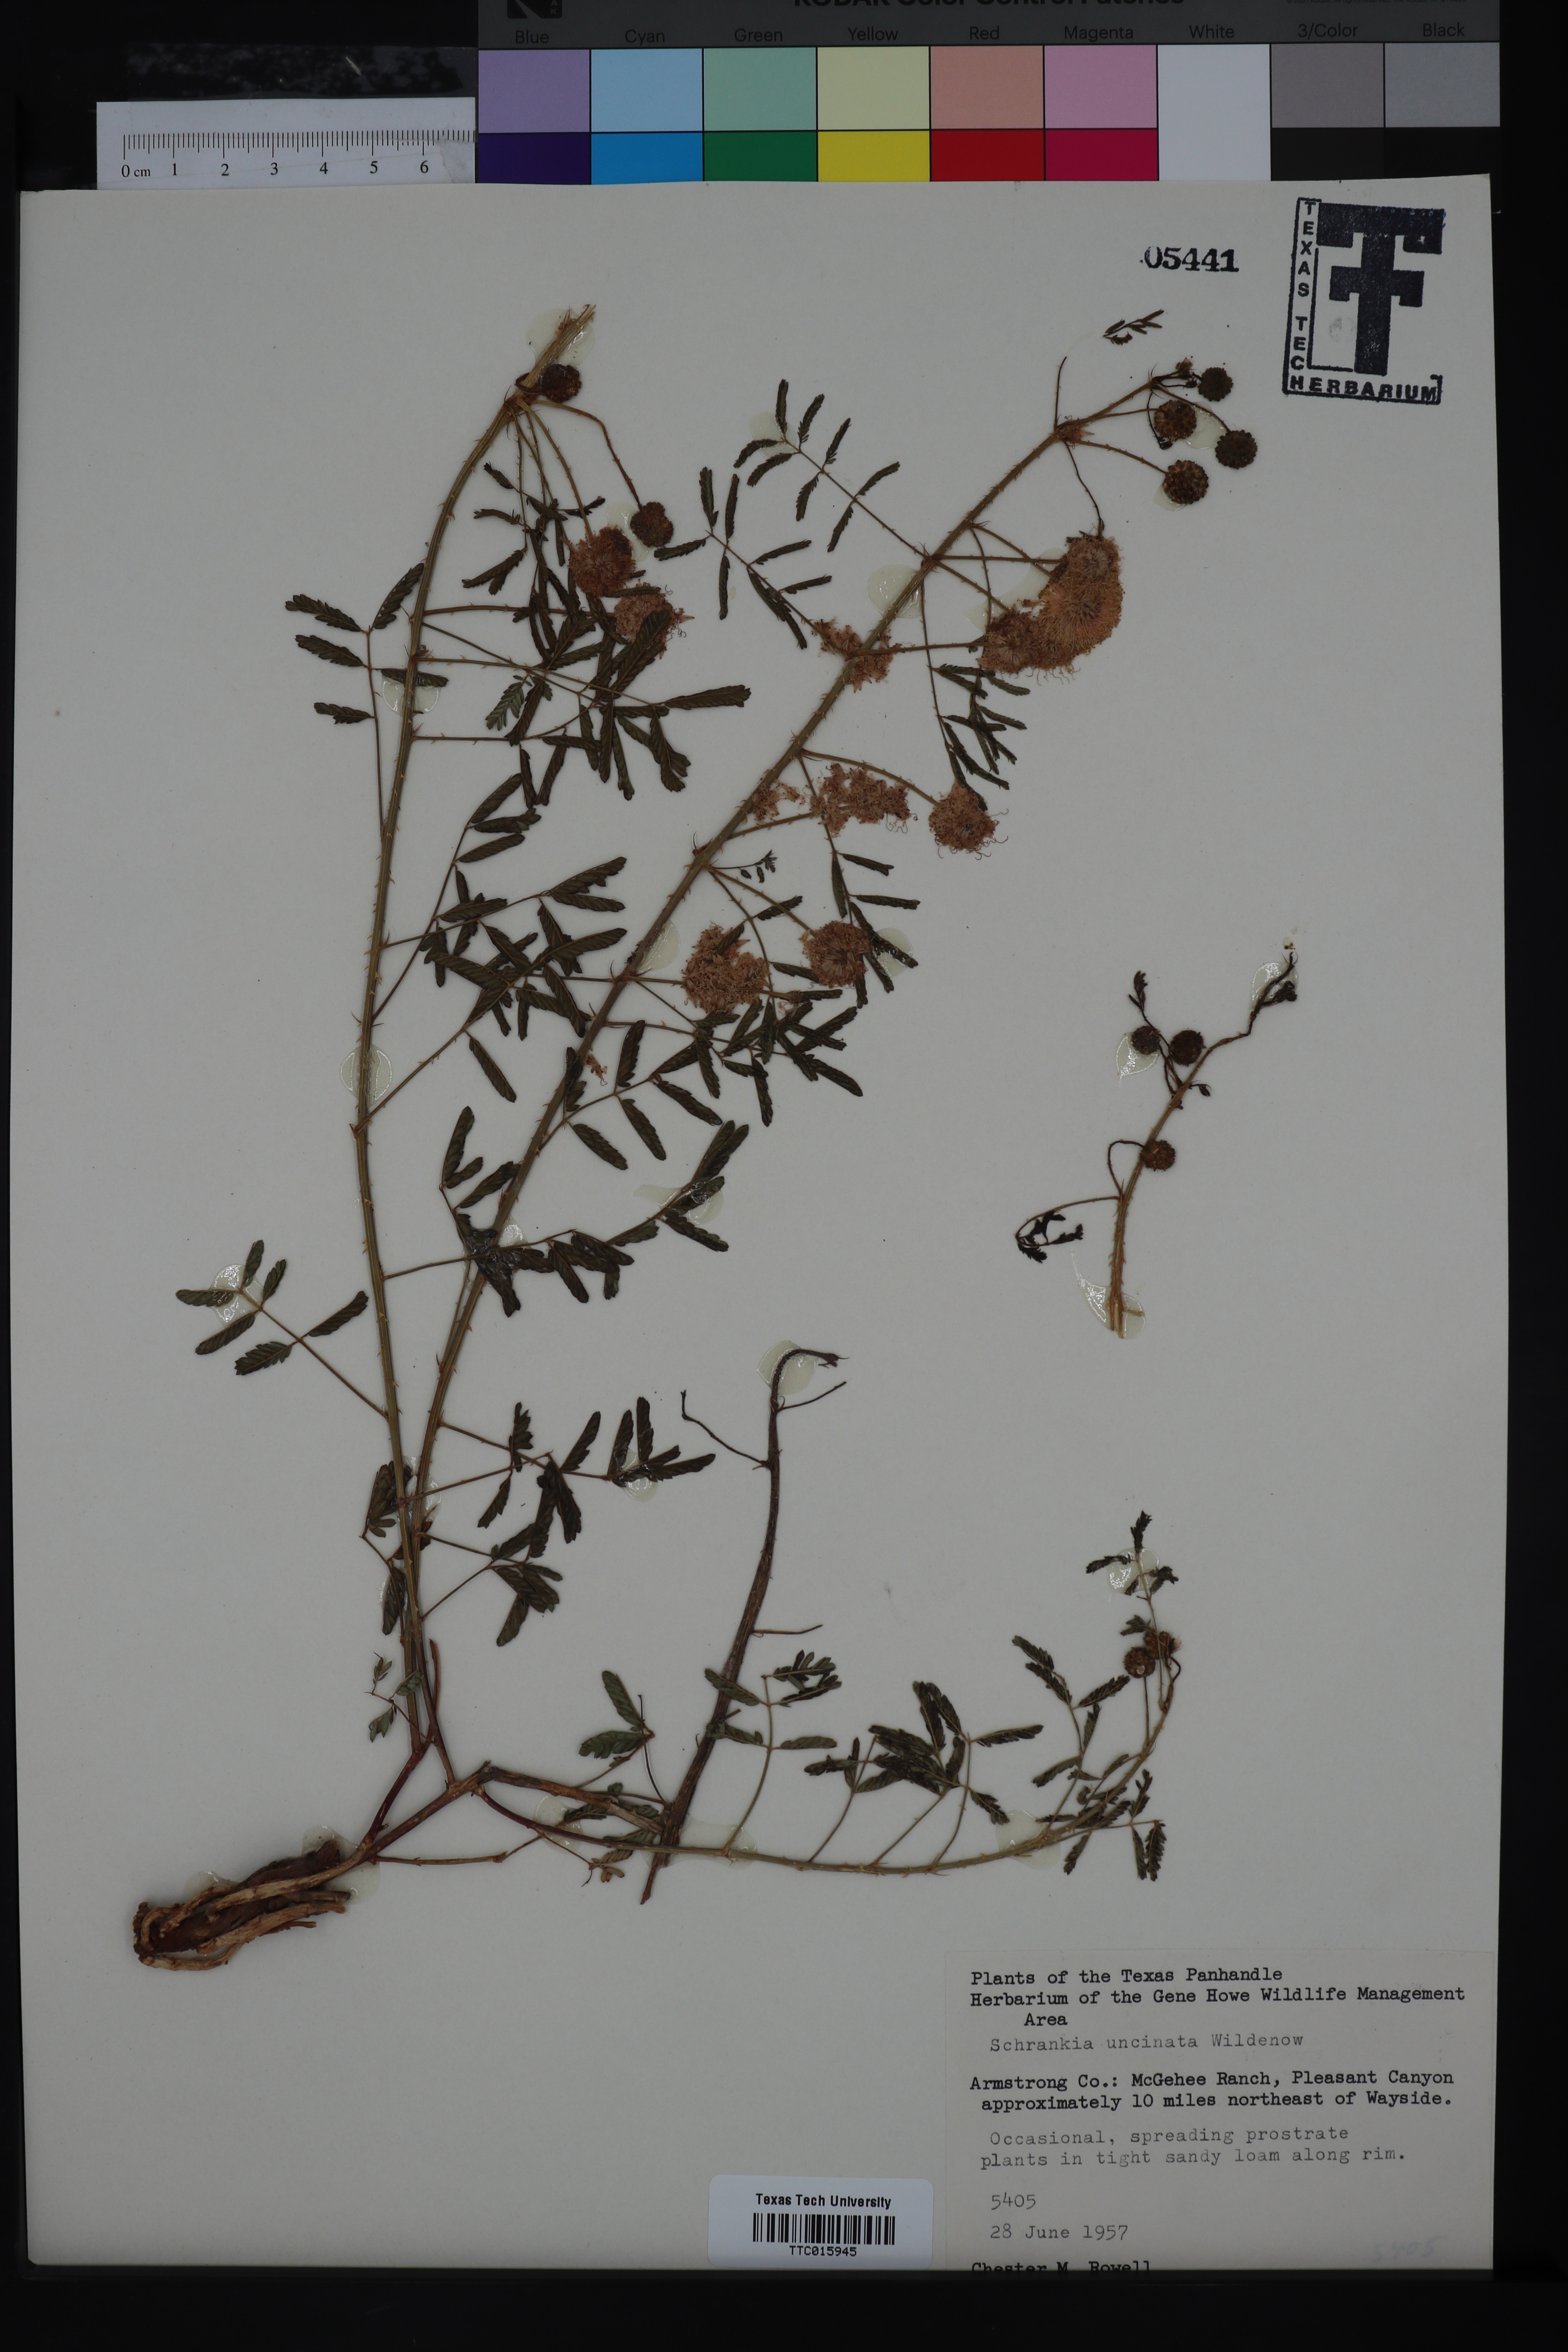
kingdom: Plantae
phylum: Tracheophyta
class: Magnoliopsida
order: Fabales
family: Fabaceae
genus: Mimosa
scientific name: Mimosa quadrivalvis
